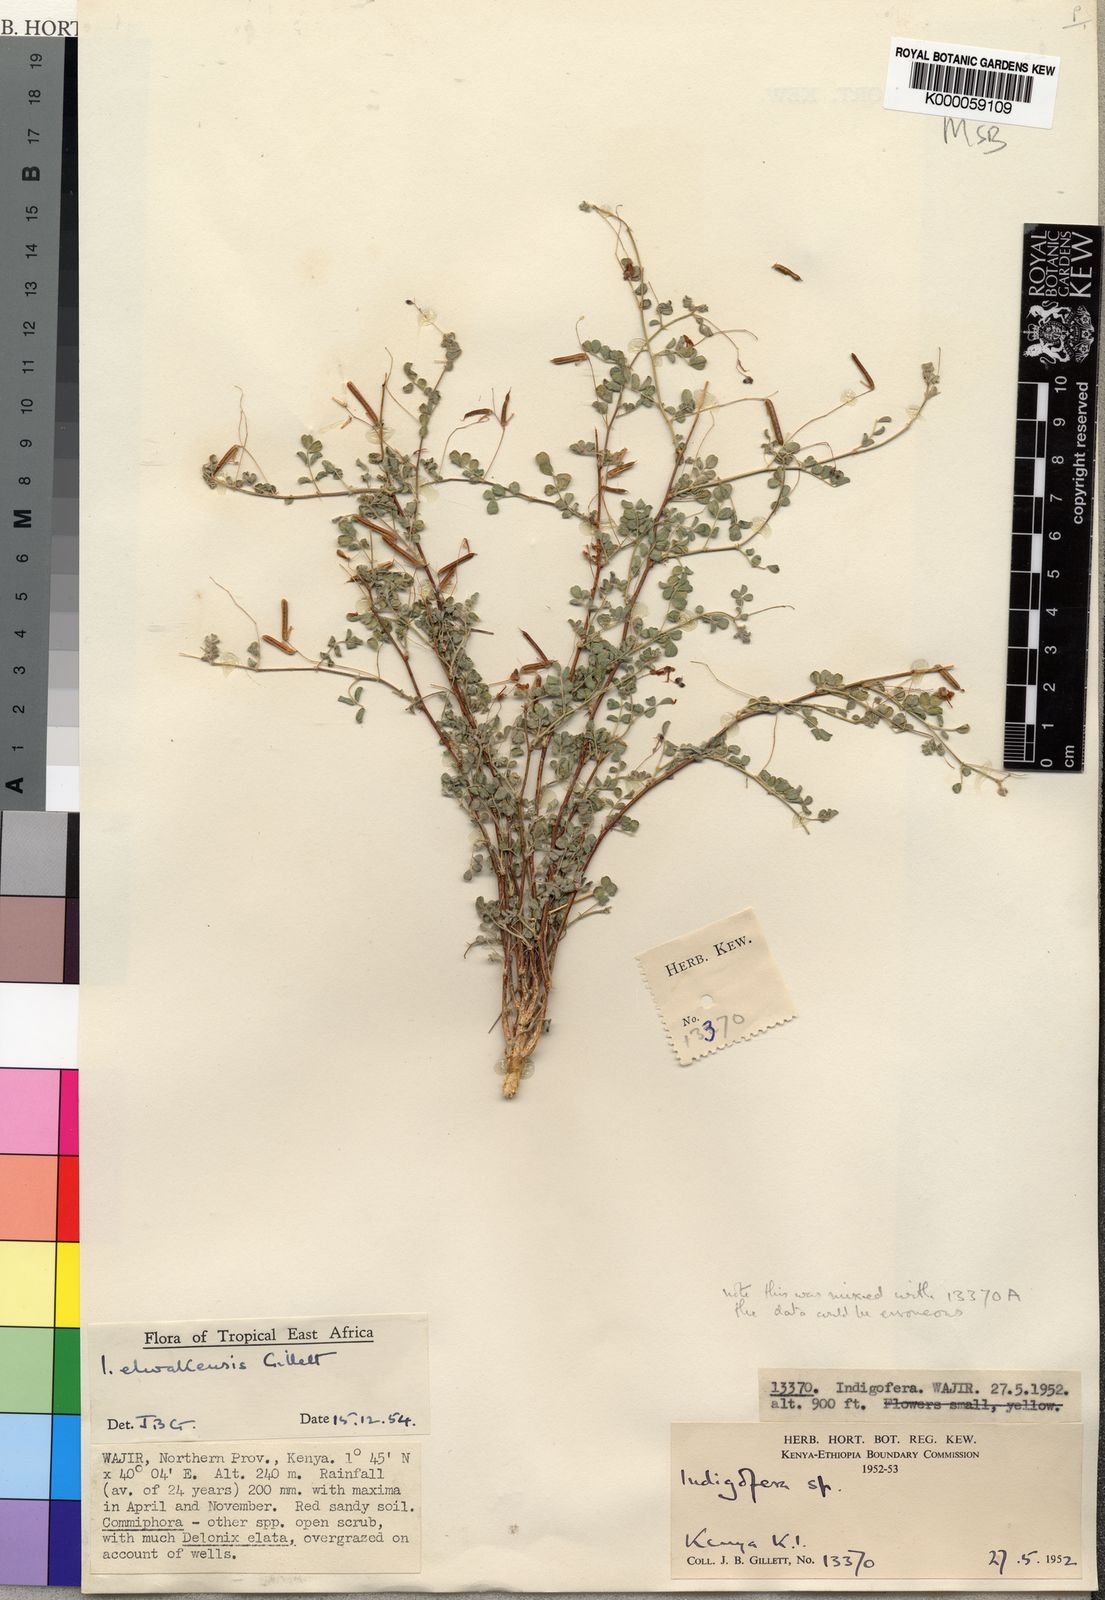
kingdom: Plantae
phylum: Tracheophyta
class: Magnoliopsida
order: Fabales
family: Fabaceae
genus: Indigofera
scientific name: Indigofera elwakensis
